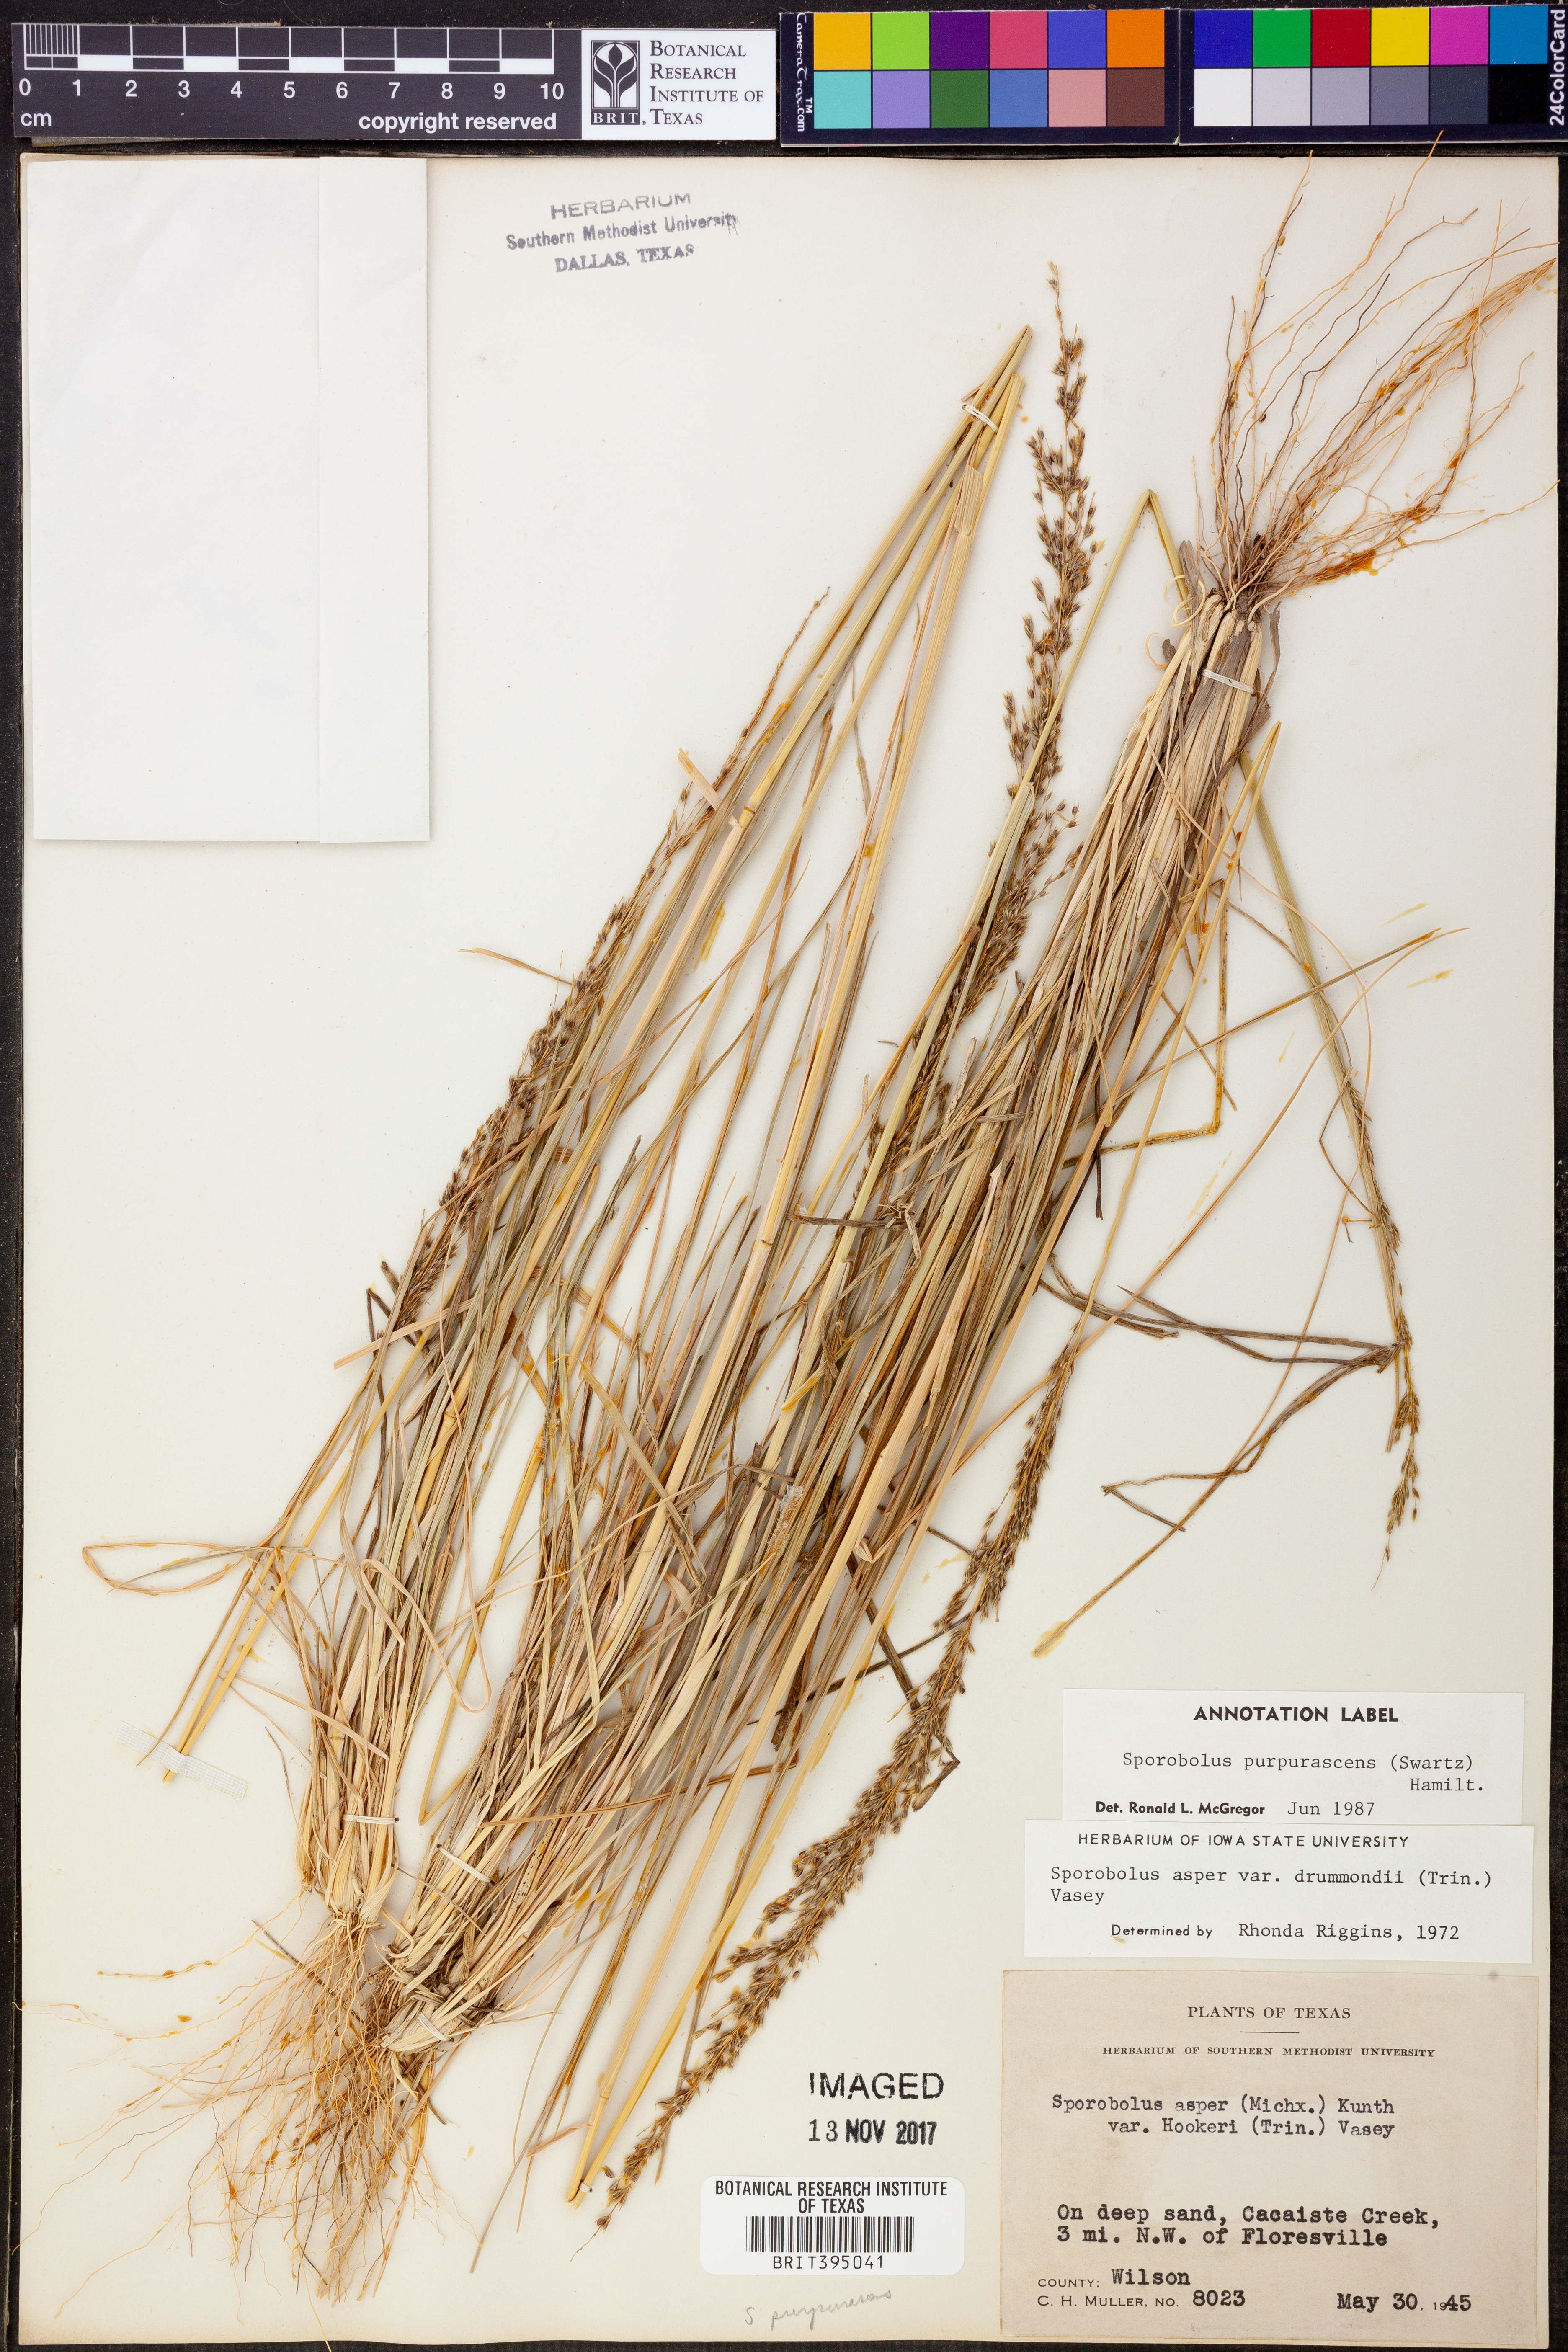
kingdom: Plantae
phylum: Tracheophyta
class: Liliopsida
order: Poales
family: Poaceae
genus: Sporobolus
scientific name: Sporobolus purpurascens
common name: Purple dropseed
